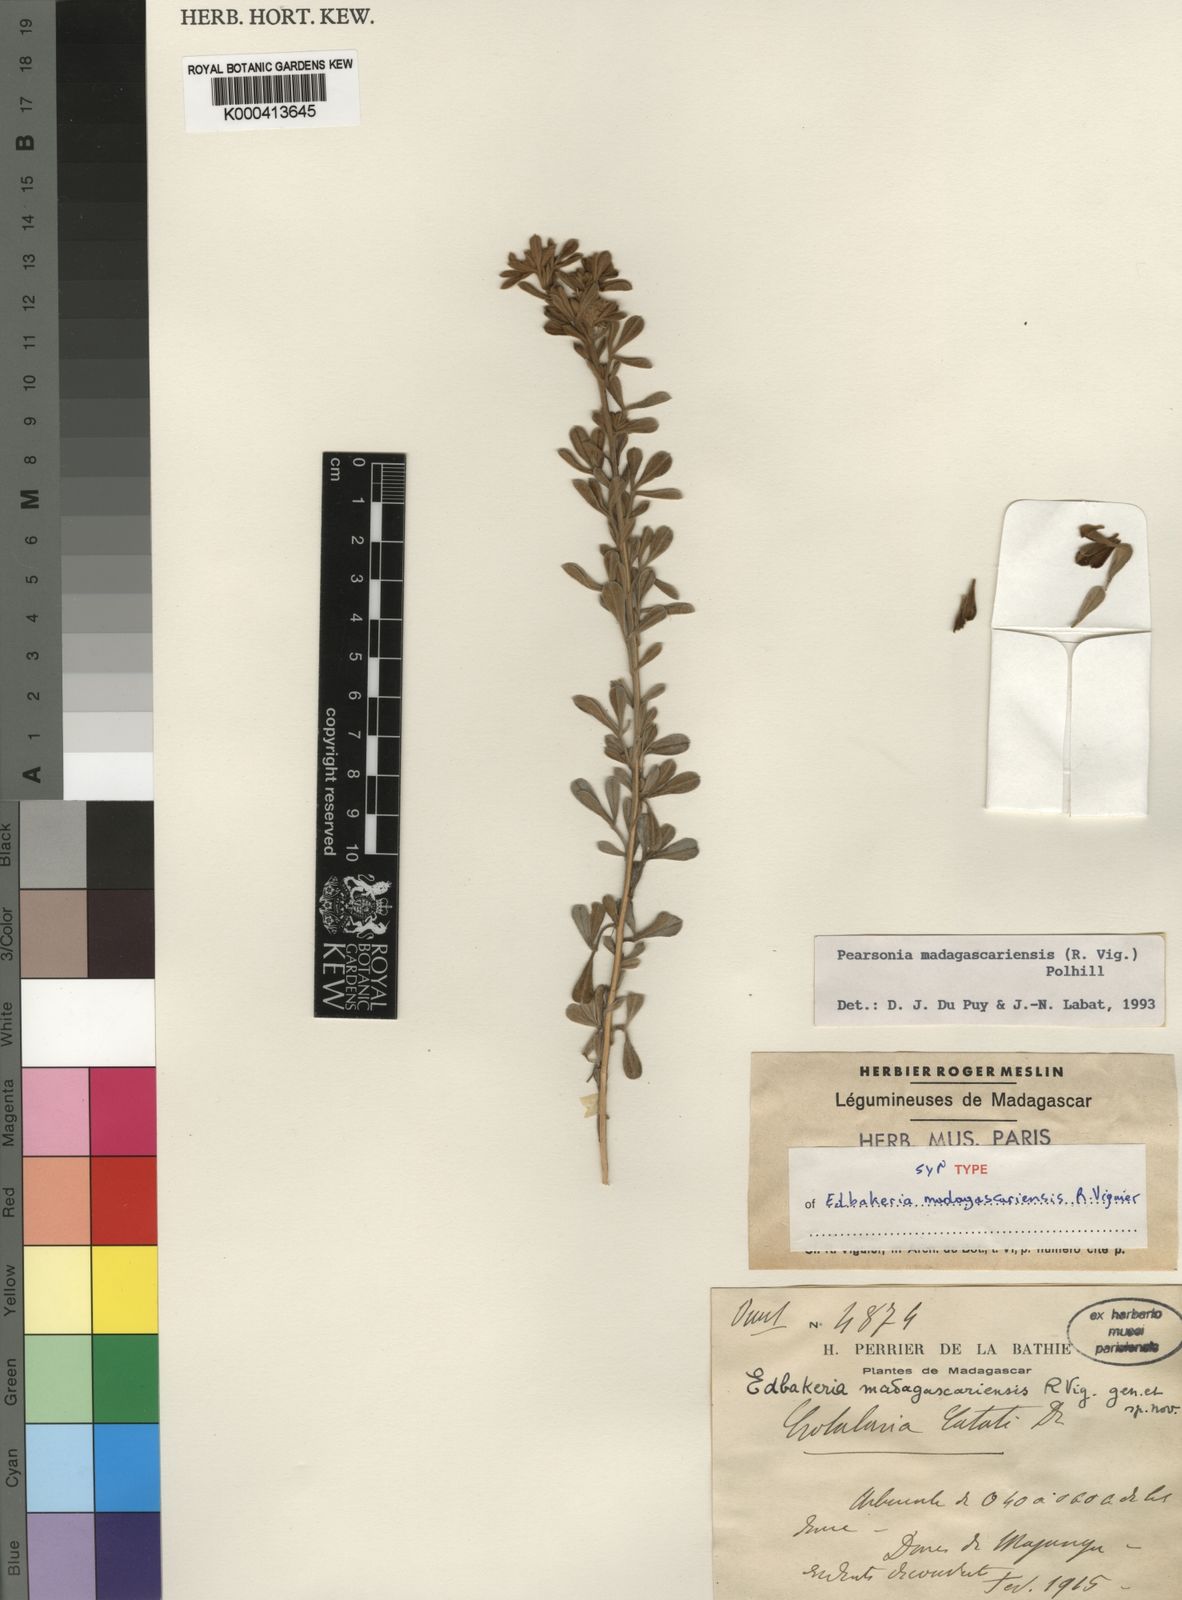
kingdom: Plantae
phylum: Tracheophyta
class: Magnoliopsida
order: Fabales
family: Fabaceae
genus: Pearsonia
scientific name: Pearsonia madagascariensis
